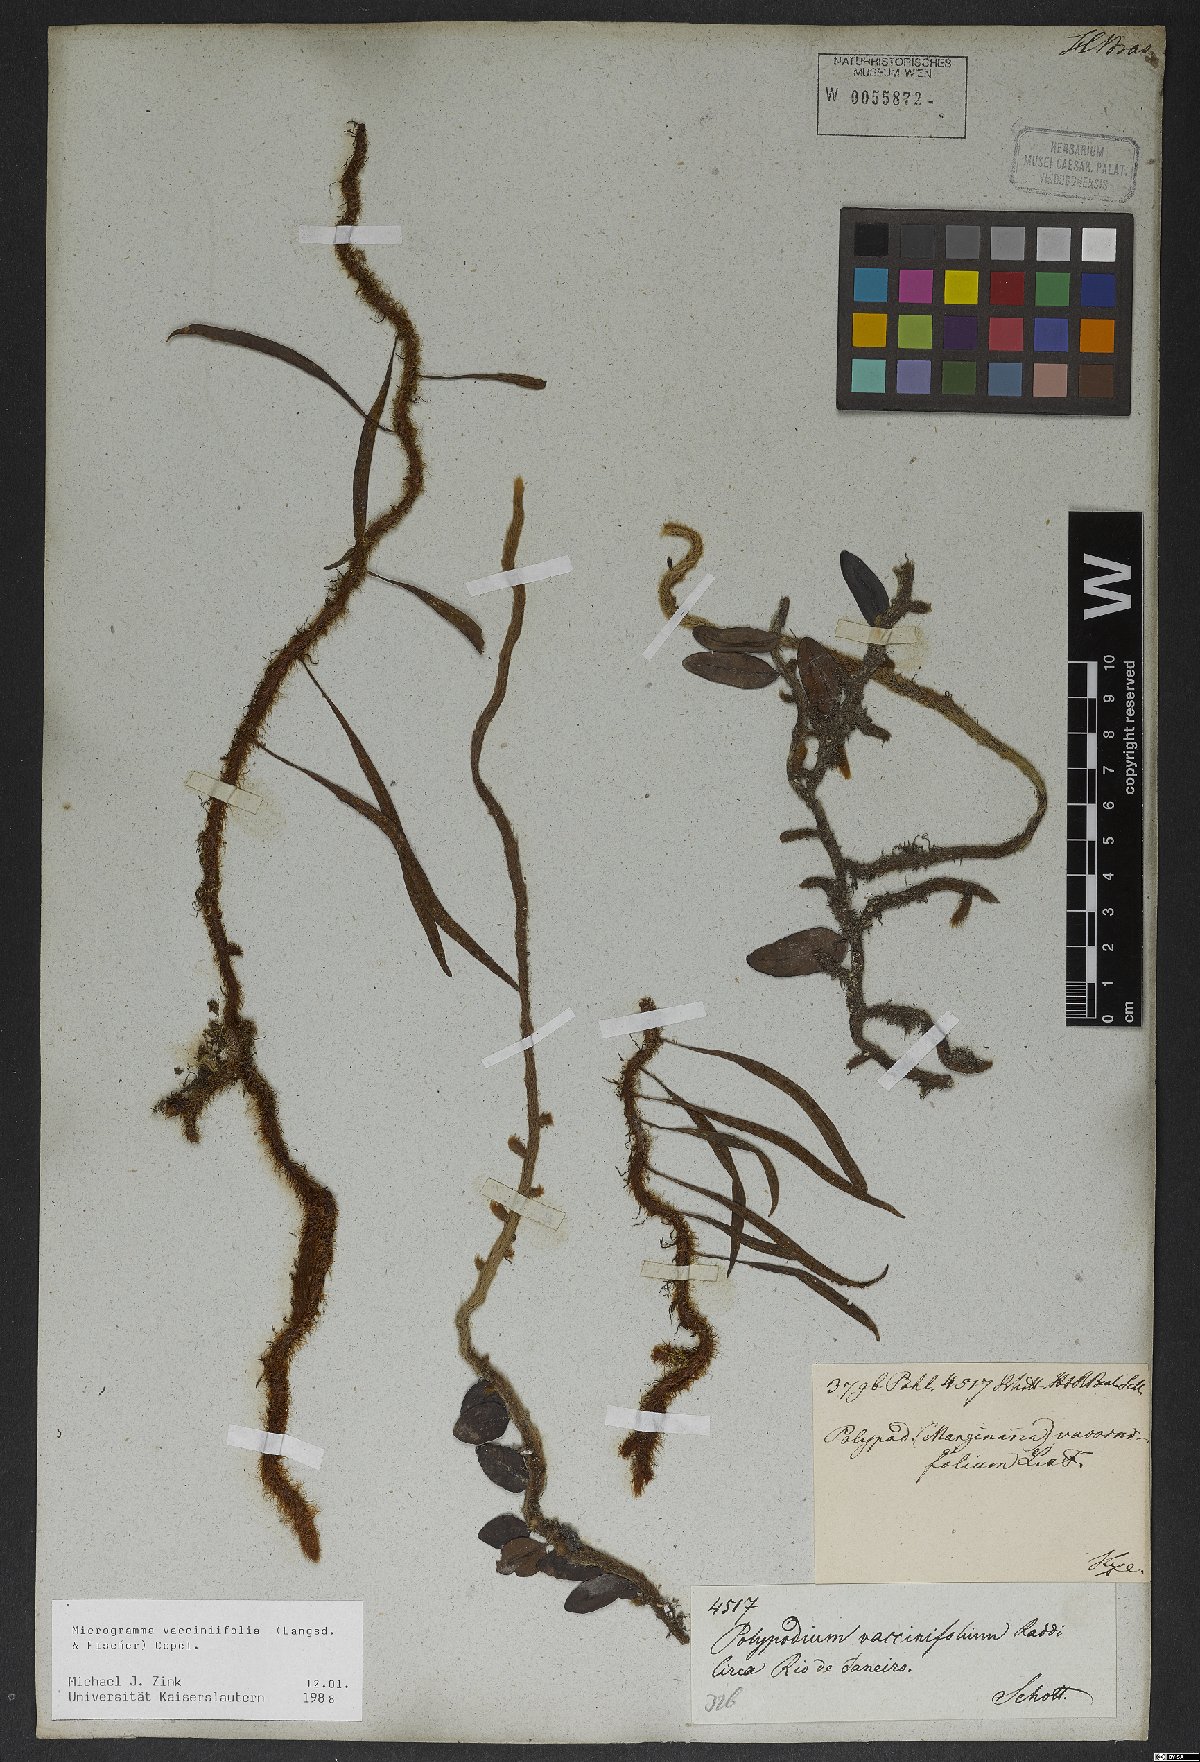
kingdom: Plantae
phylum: Tracheophyta
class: Polypodiopsida
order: Polypodiales
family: Polypodiaceae
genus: Microgramma
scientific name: Microgramma vaccinifolia
